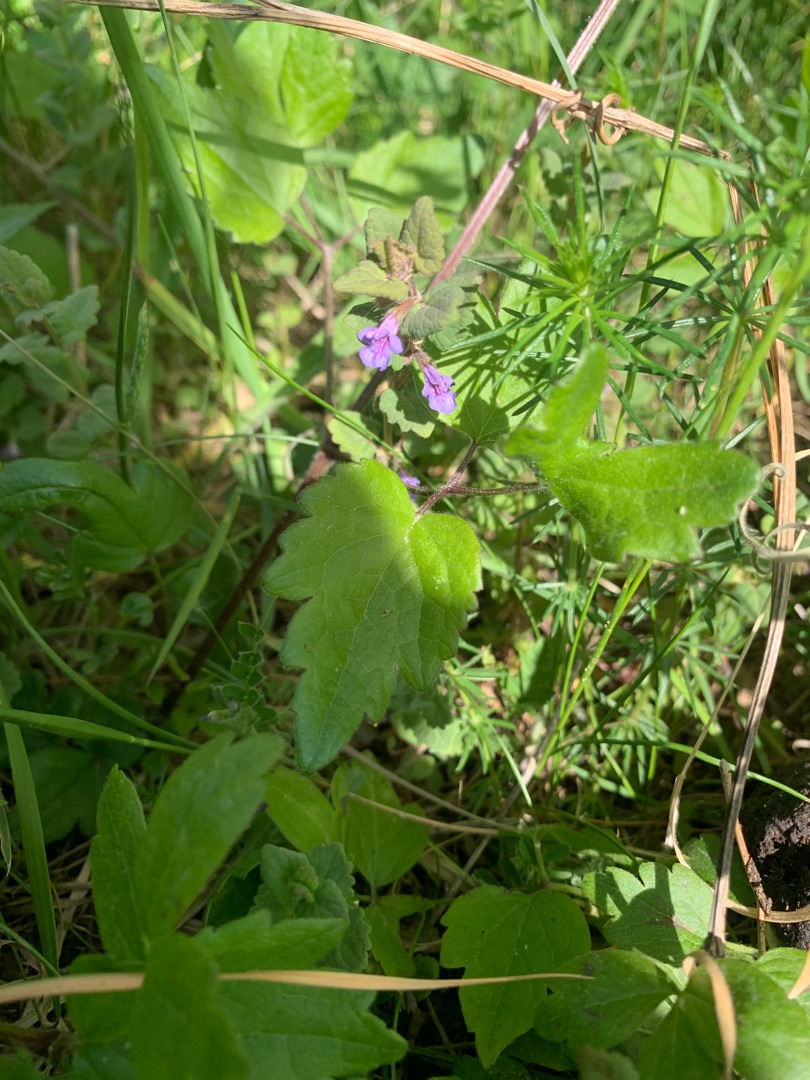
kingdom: Plantae
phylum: Tracheophyta
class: Magnoliopsida
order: Lamiales
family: Lamiaceae
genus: Glechoma
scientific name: Glechoma hederacea
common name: Korsknap
